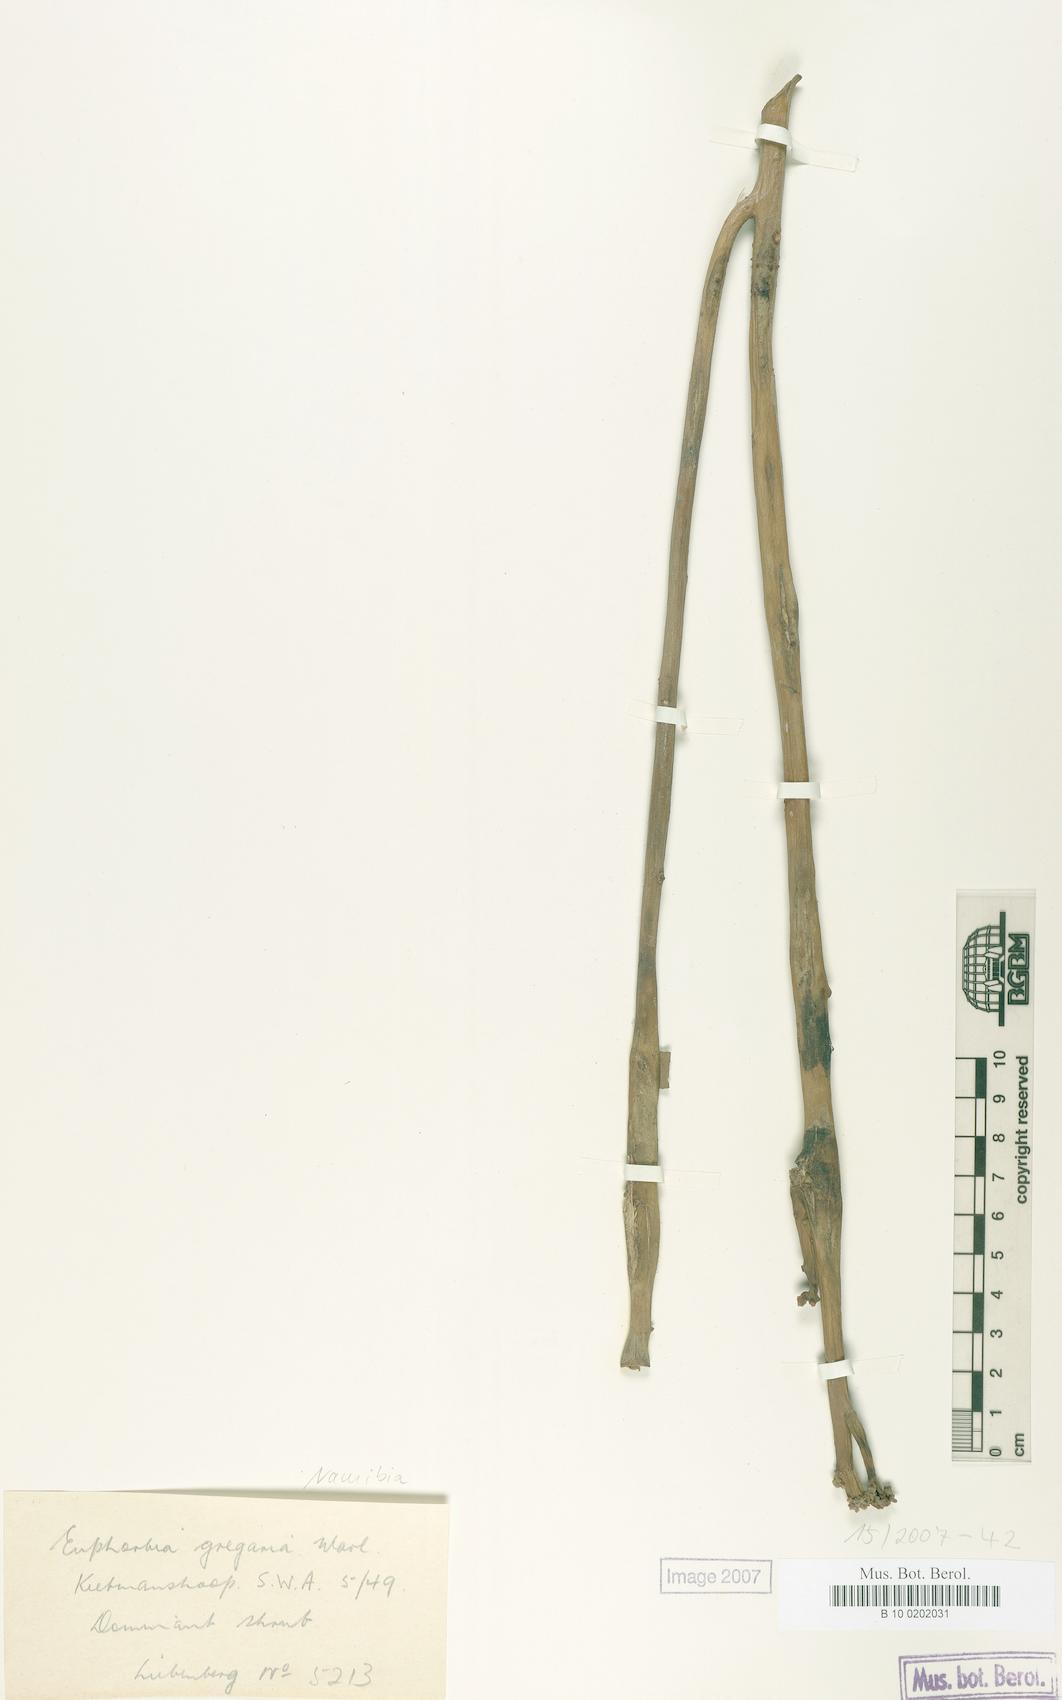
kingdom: Plantae
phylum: Tracheophyta
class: Magnoliopsida
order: Malpighiales
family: Euphorbiaceae
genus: Euphorbia
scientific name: Euphorbia gregaria
